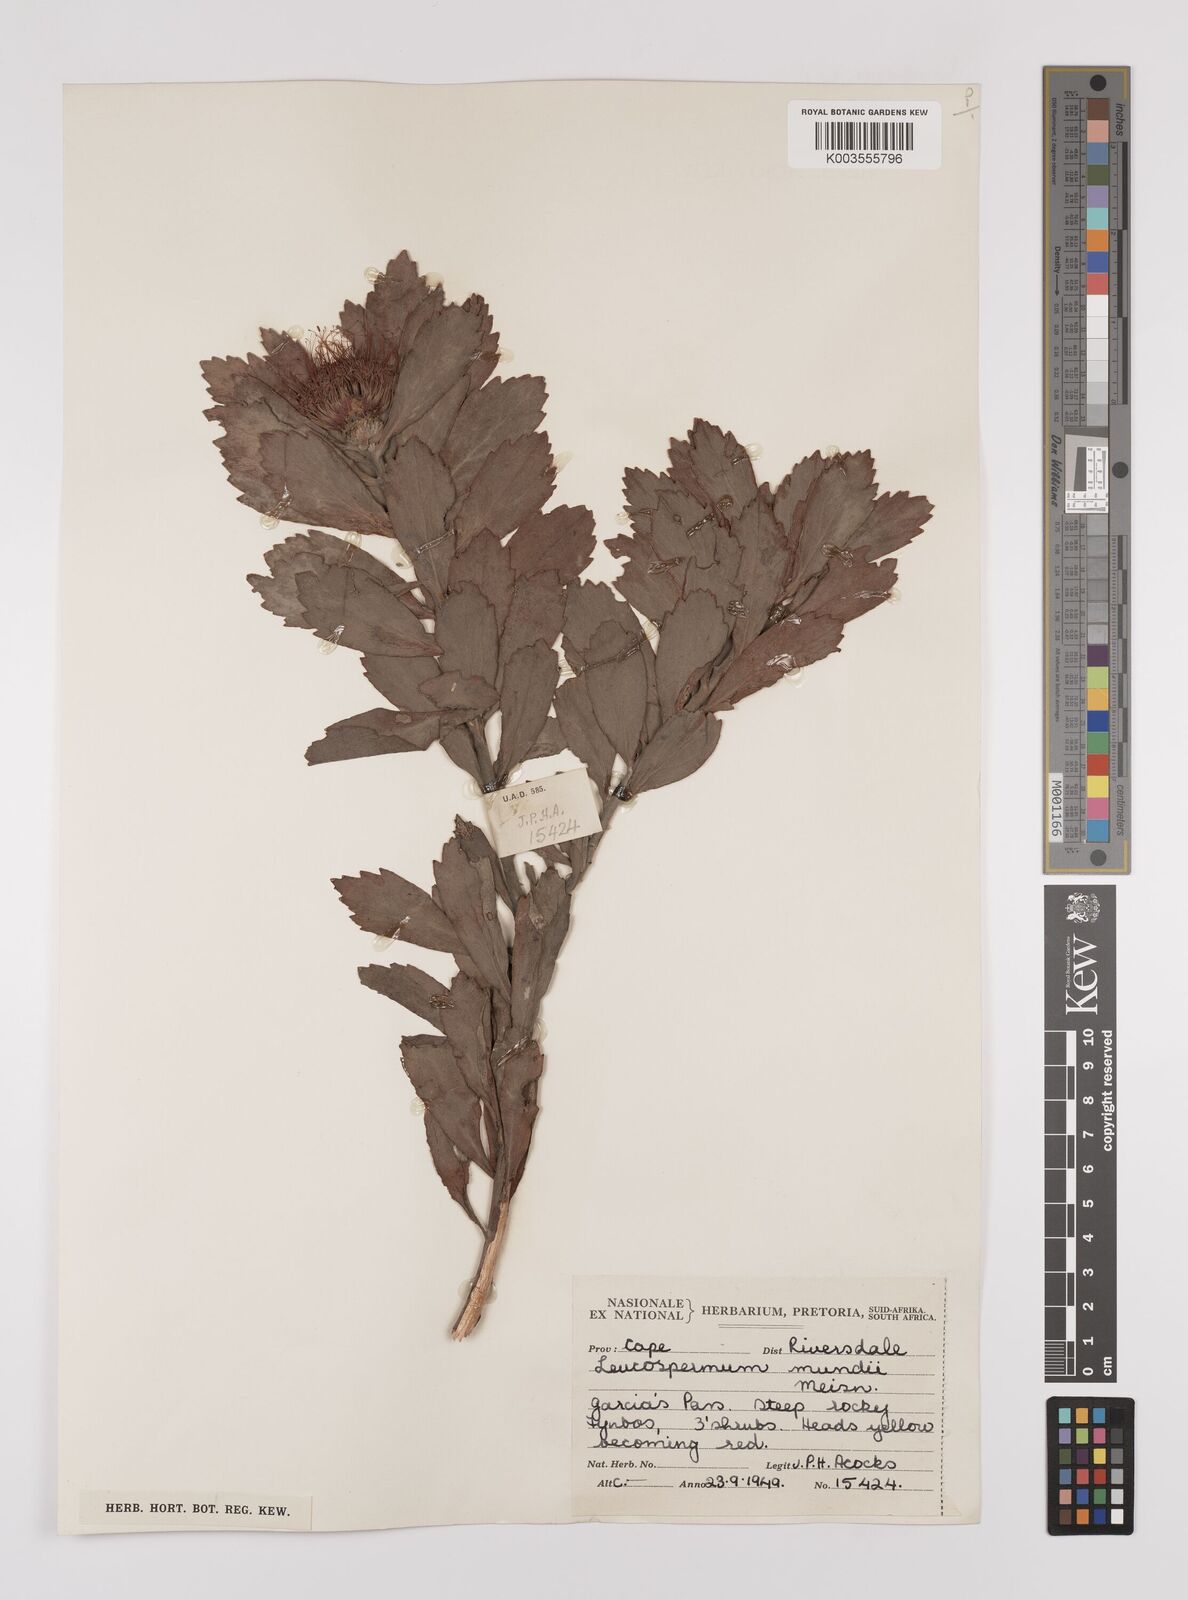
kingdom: Plantae
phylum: Tracheophyta
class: Magnoliopsida
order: Proteales
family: Proteaceae
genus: Leucospermum
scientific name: Leucospermum mundii
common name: Langeberg pincushion
